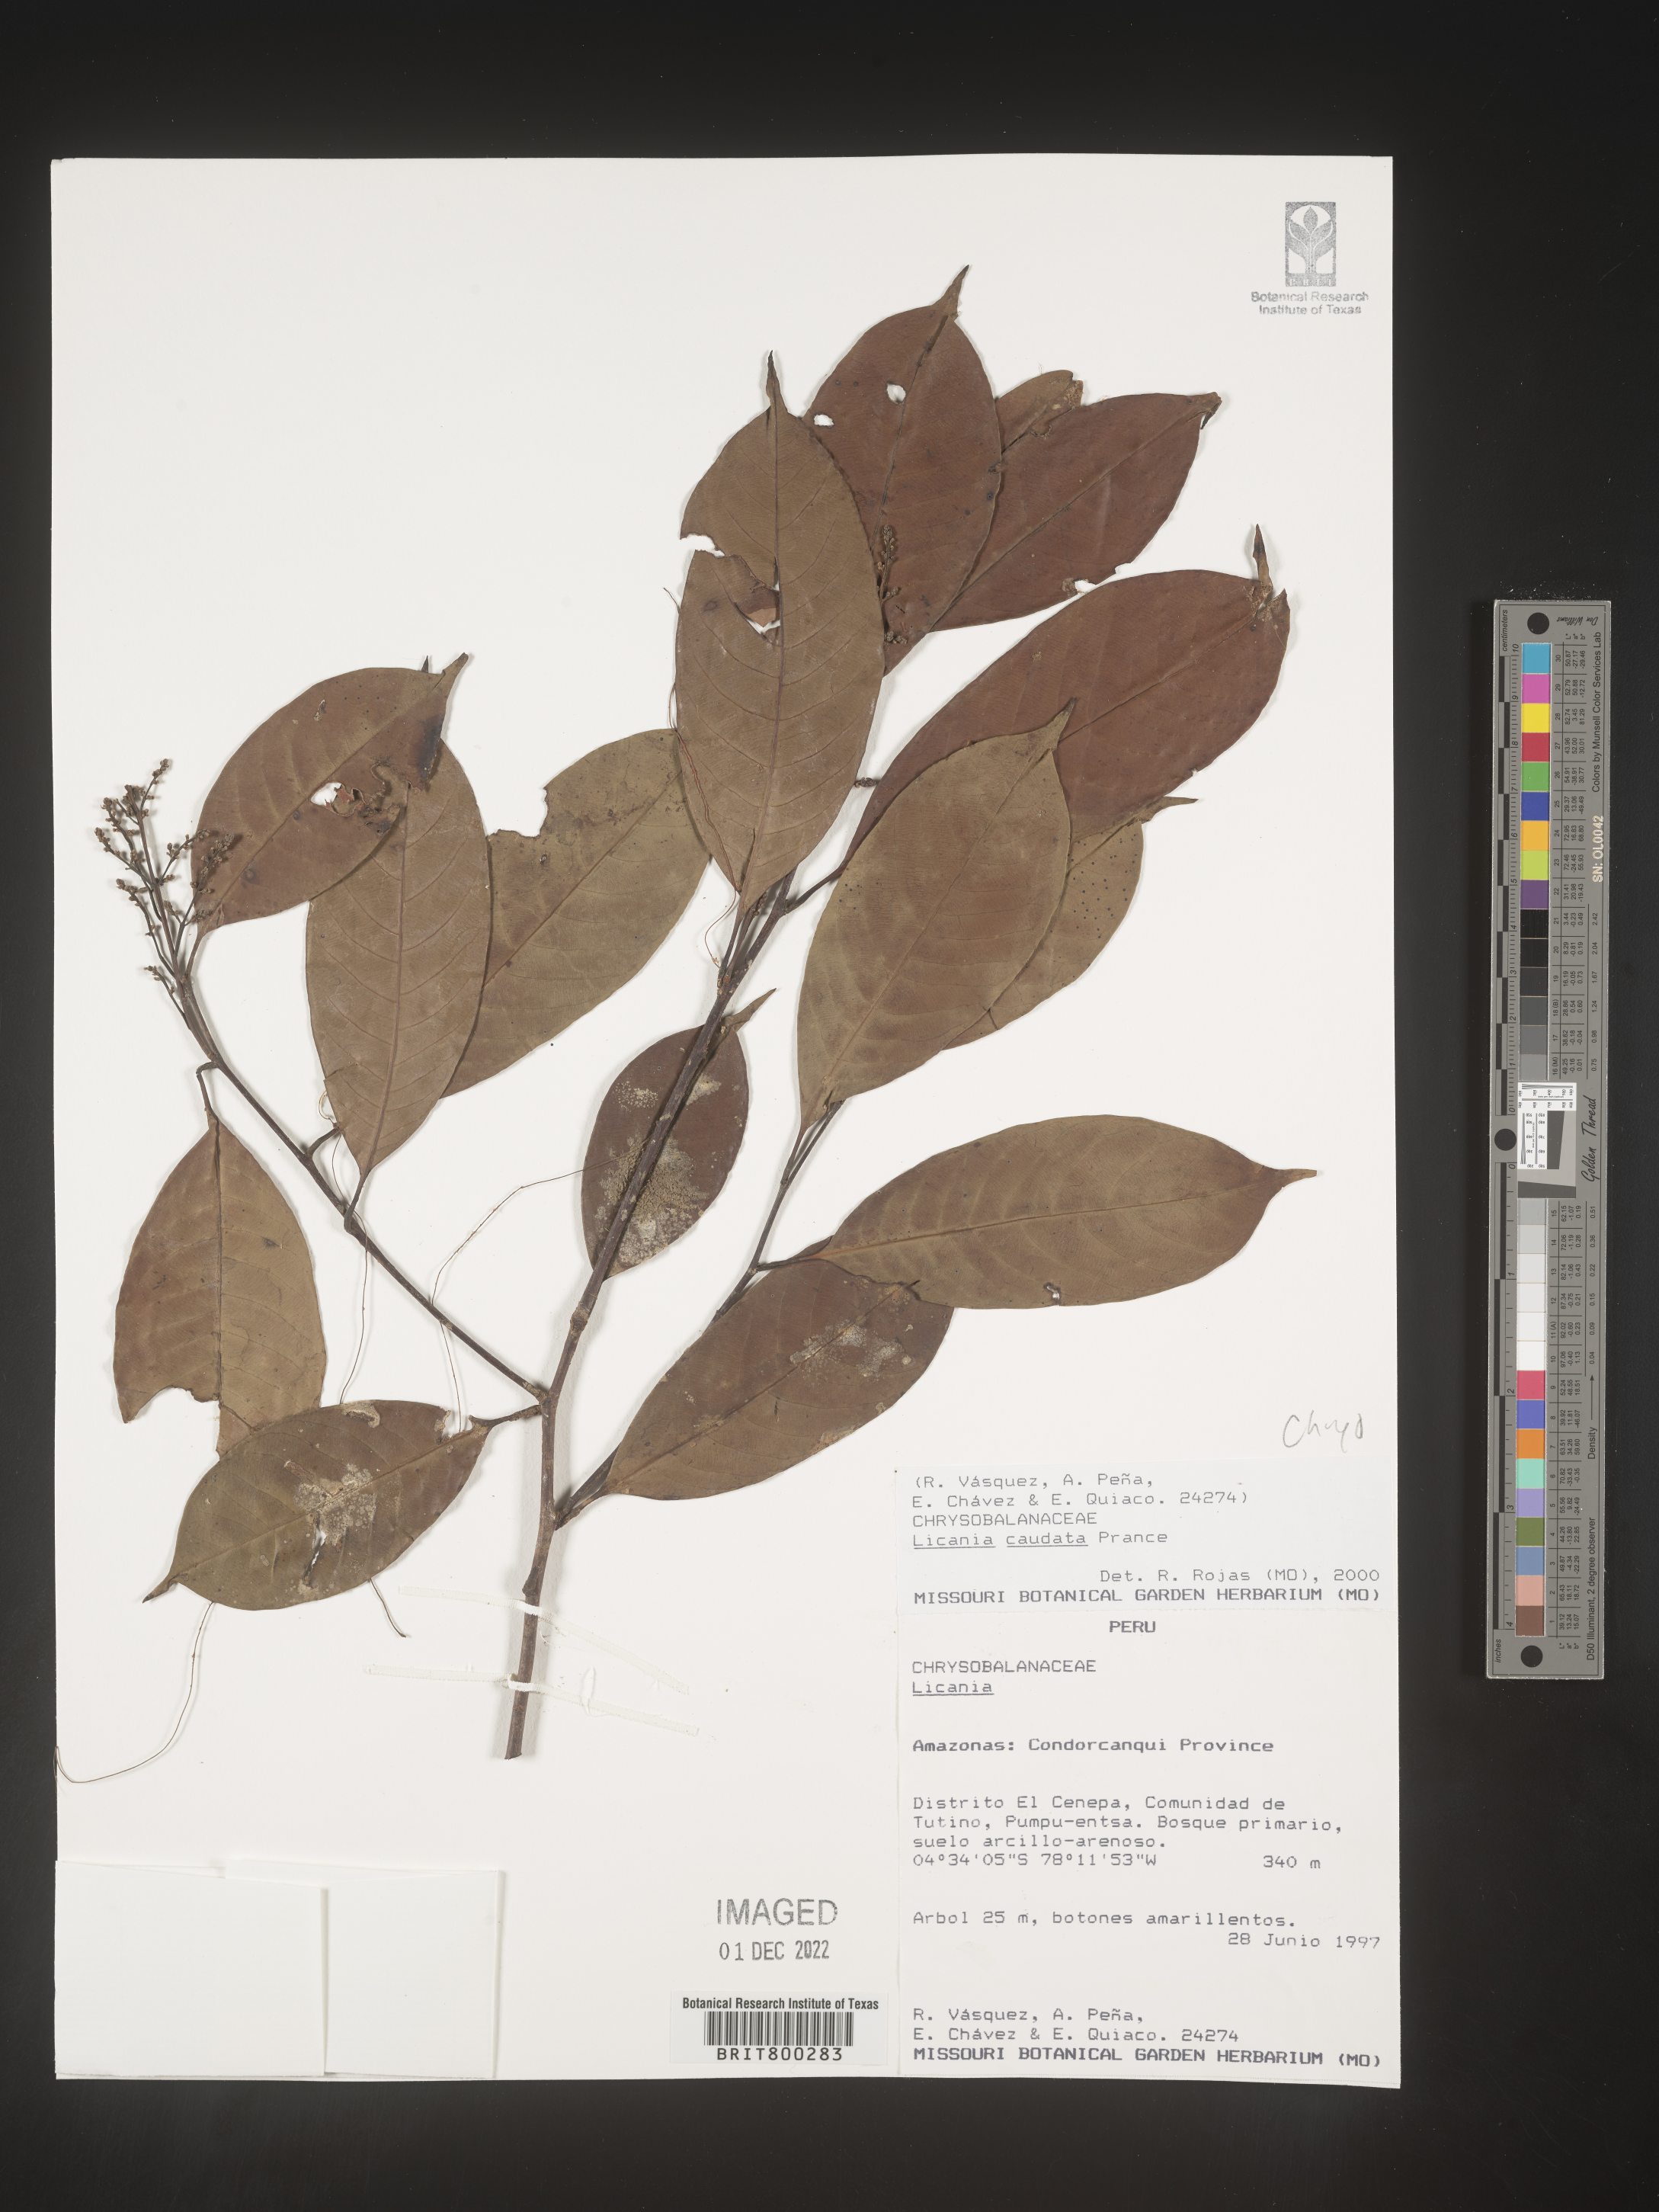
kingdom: Plantae
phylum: Tracheophyta
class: Magnoliopsida
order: Malpighiales
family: Chrysobalanaceae
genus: Geobalanus
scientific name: Geobalanus oblongifolius
